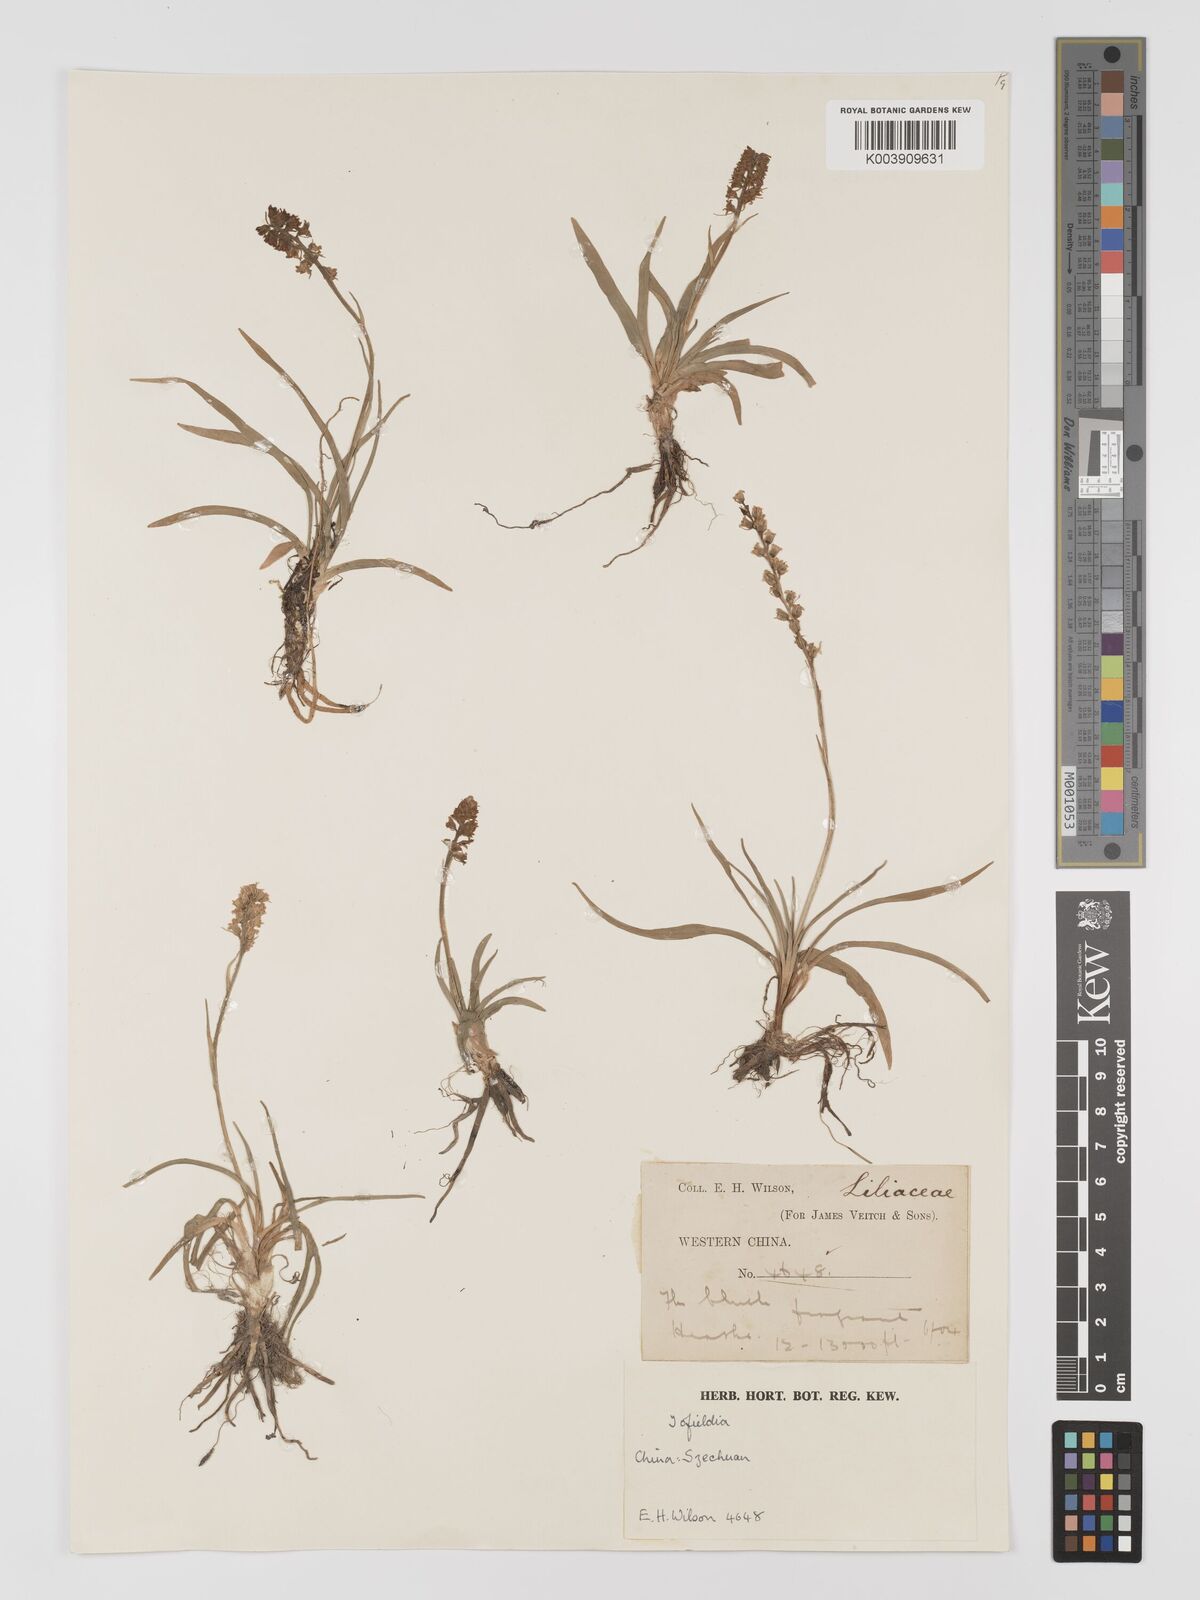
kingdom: Plantae
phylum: Tracheophyta
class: Liliopsida
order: Dioscoreales
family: Nartheciaceae
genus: Metanarthecium
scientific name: Metanarthecium
